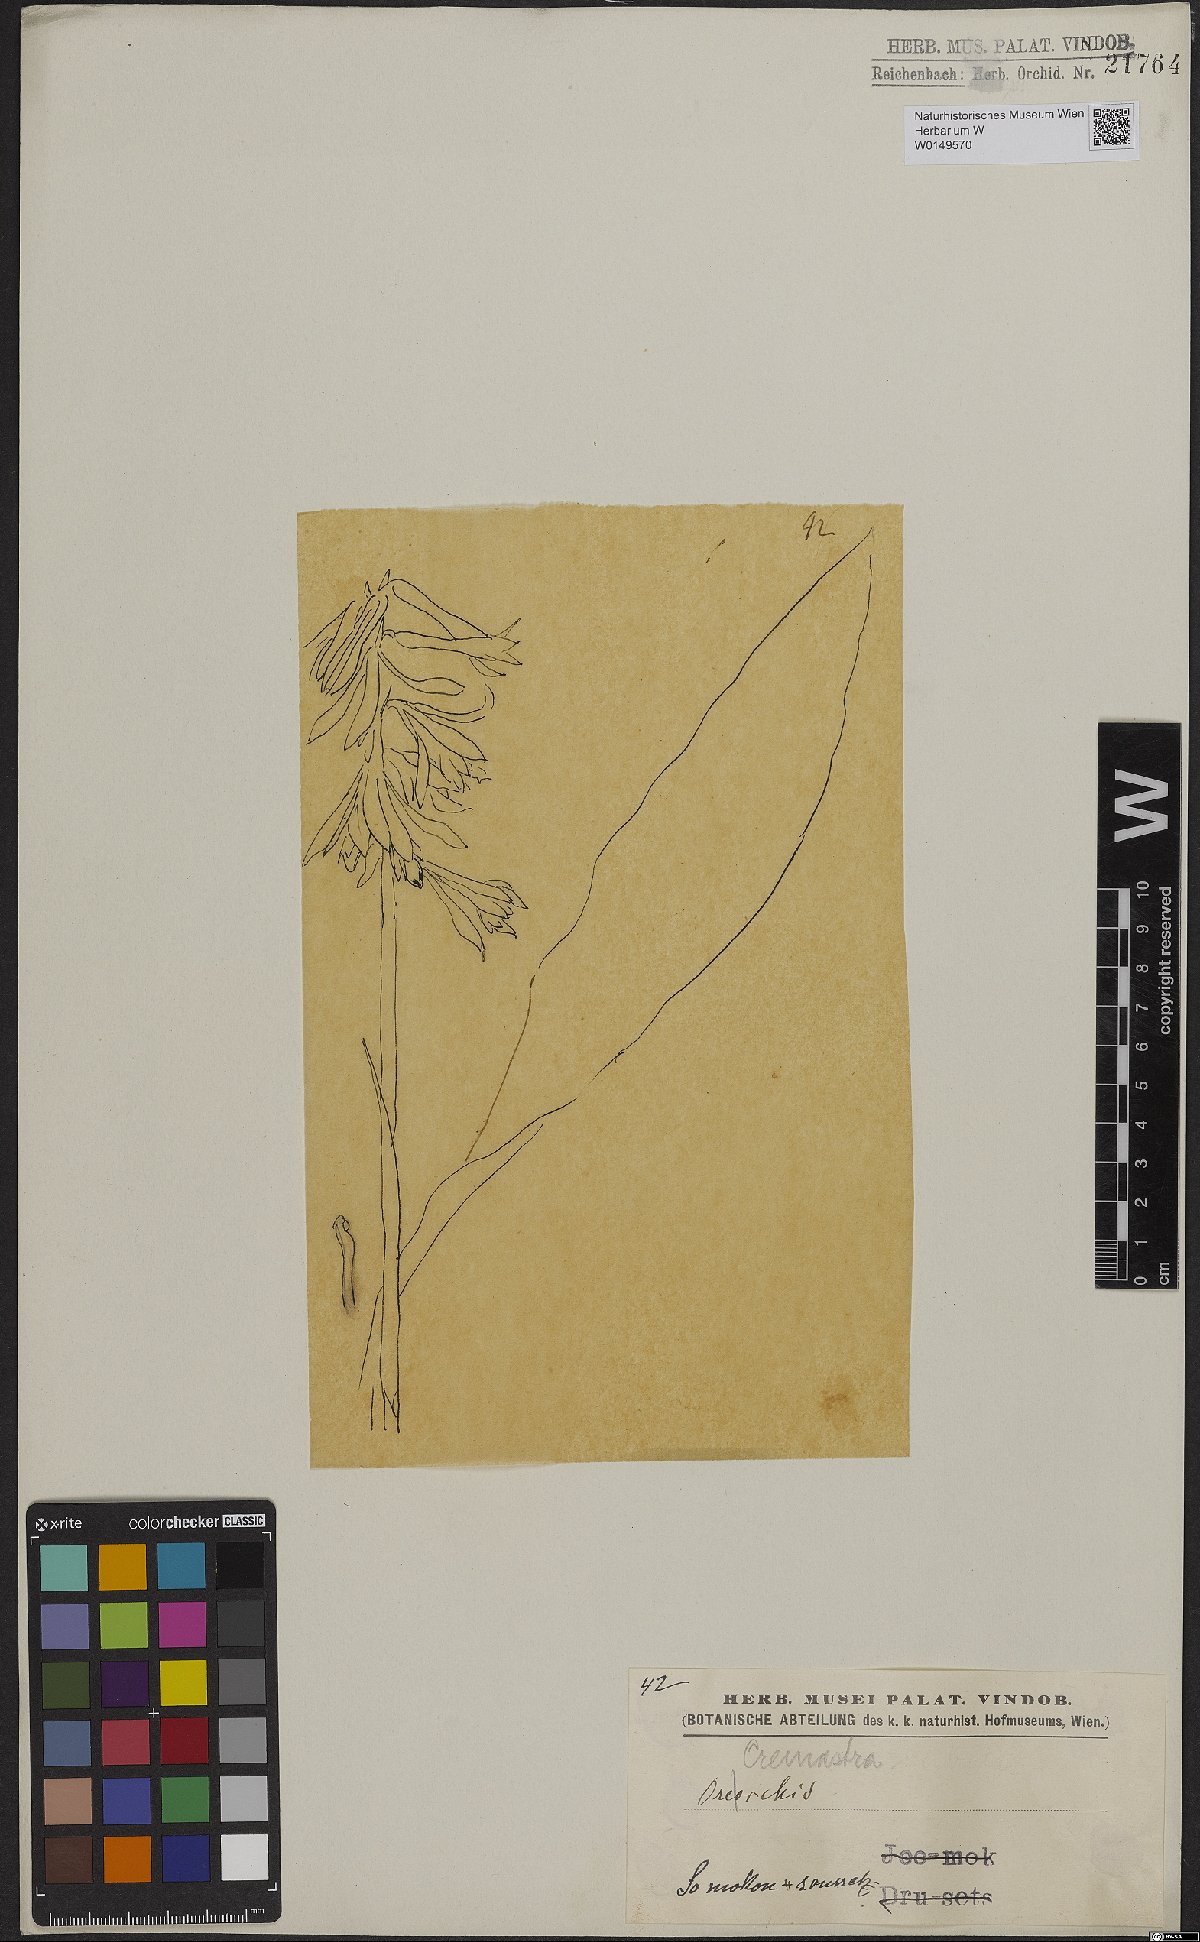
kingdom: Plantae
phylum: Tracheophyta
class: Liliopsida
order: Asparagales
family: Orchidaceae
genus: Cremastra
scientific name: Cremastra appendiculata
